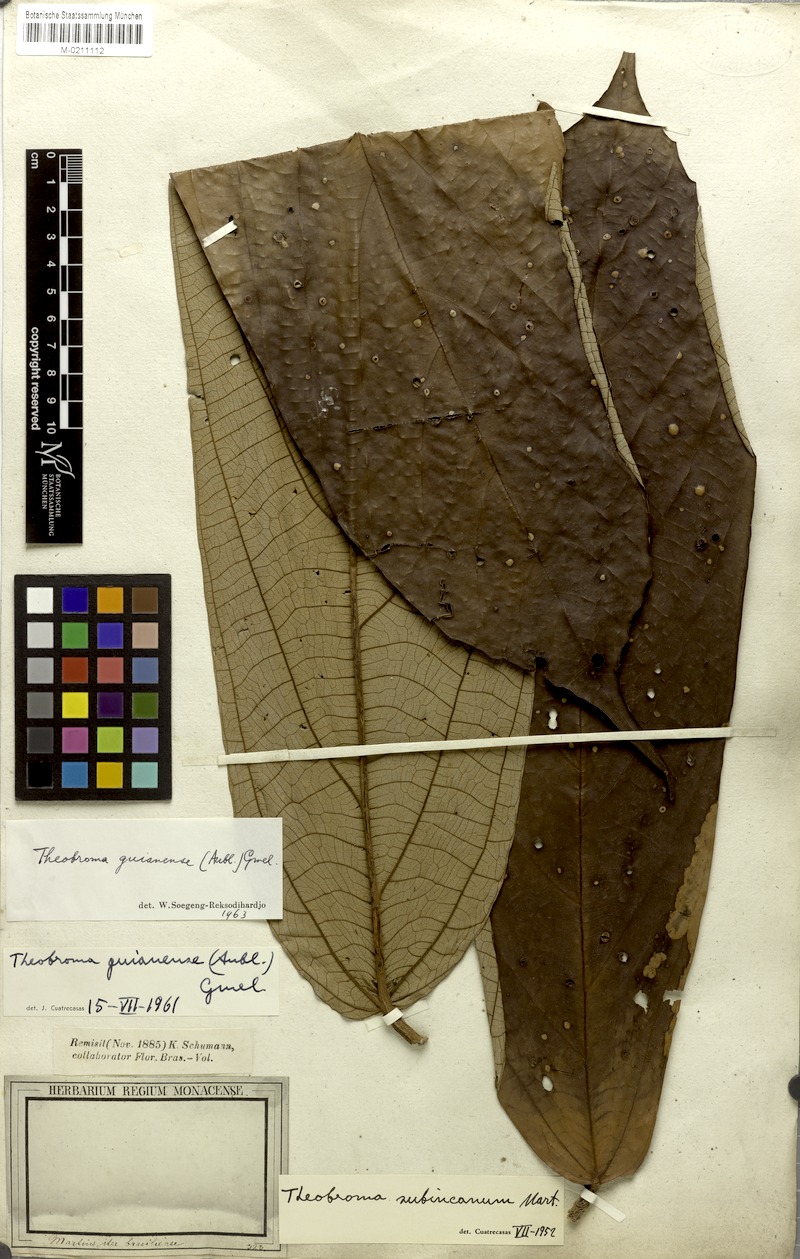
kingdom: Plantae
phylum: Tracheophyta
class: Magnoliopsida
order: Malvales
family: Malvaceae
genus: Theobroma
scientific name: Theobroma subincanum
